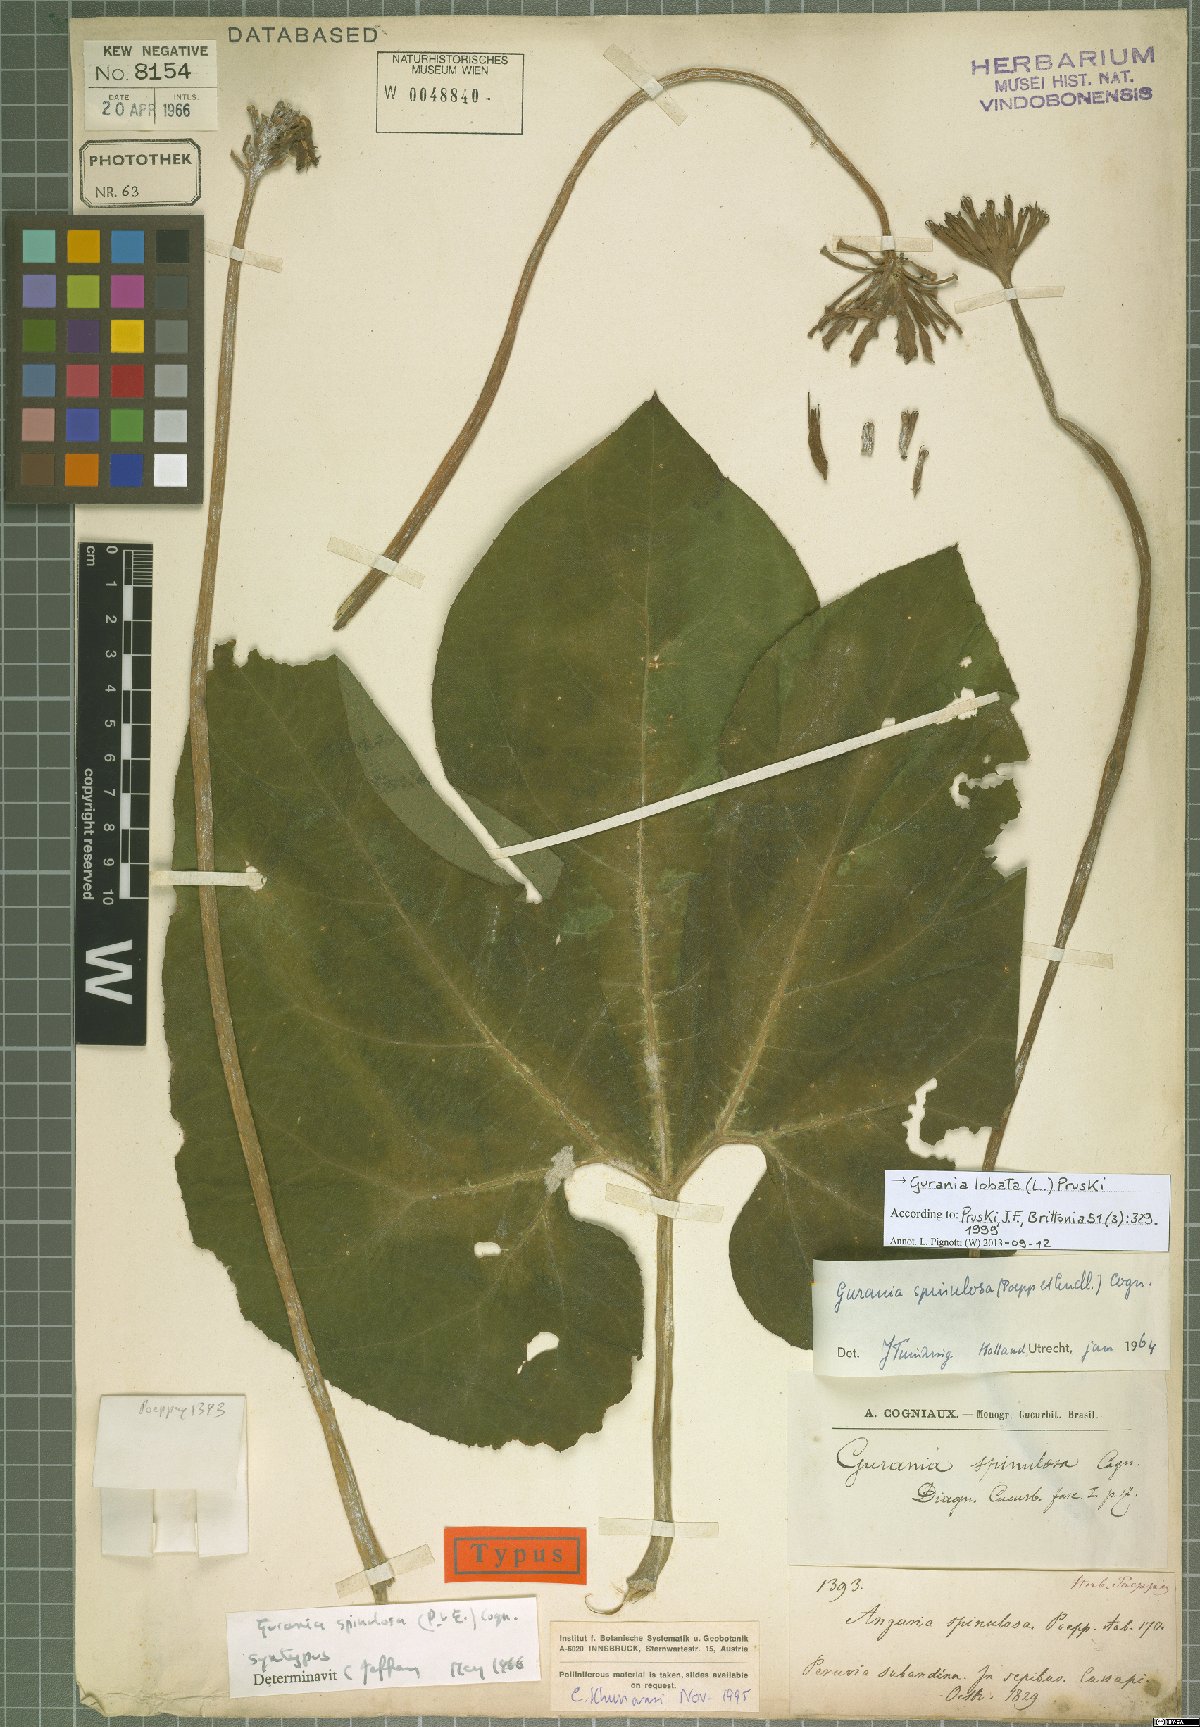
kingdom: Plantae
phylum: Tracheophyta
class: Magnoliopsida
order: Cucurbitales
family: Cucurbitaceae
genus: Gurania
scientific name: Gurania lobata
